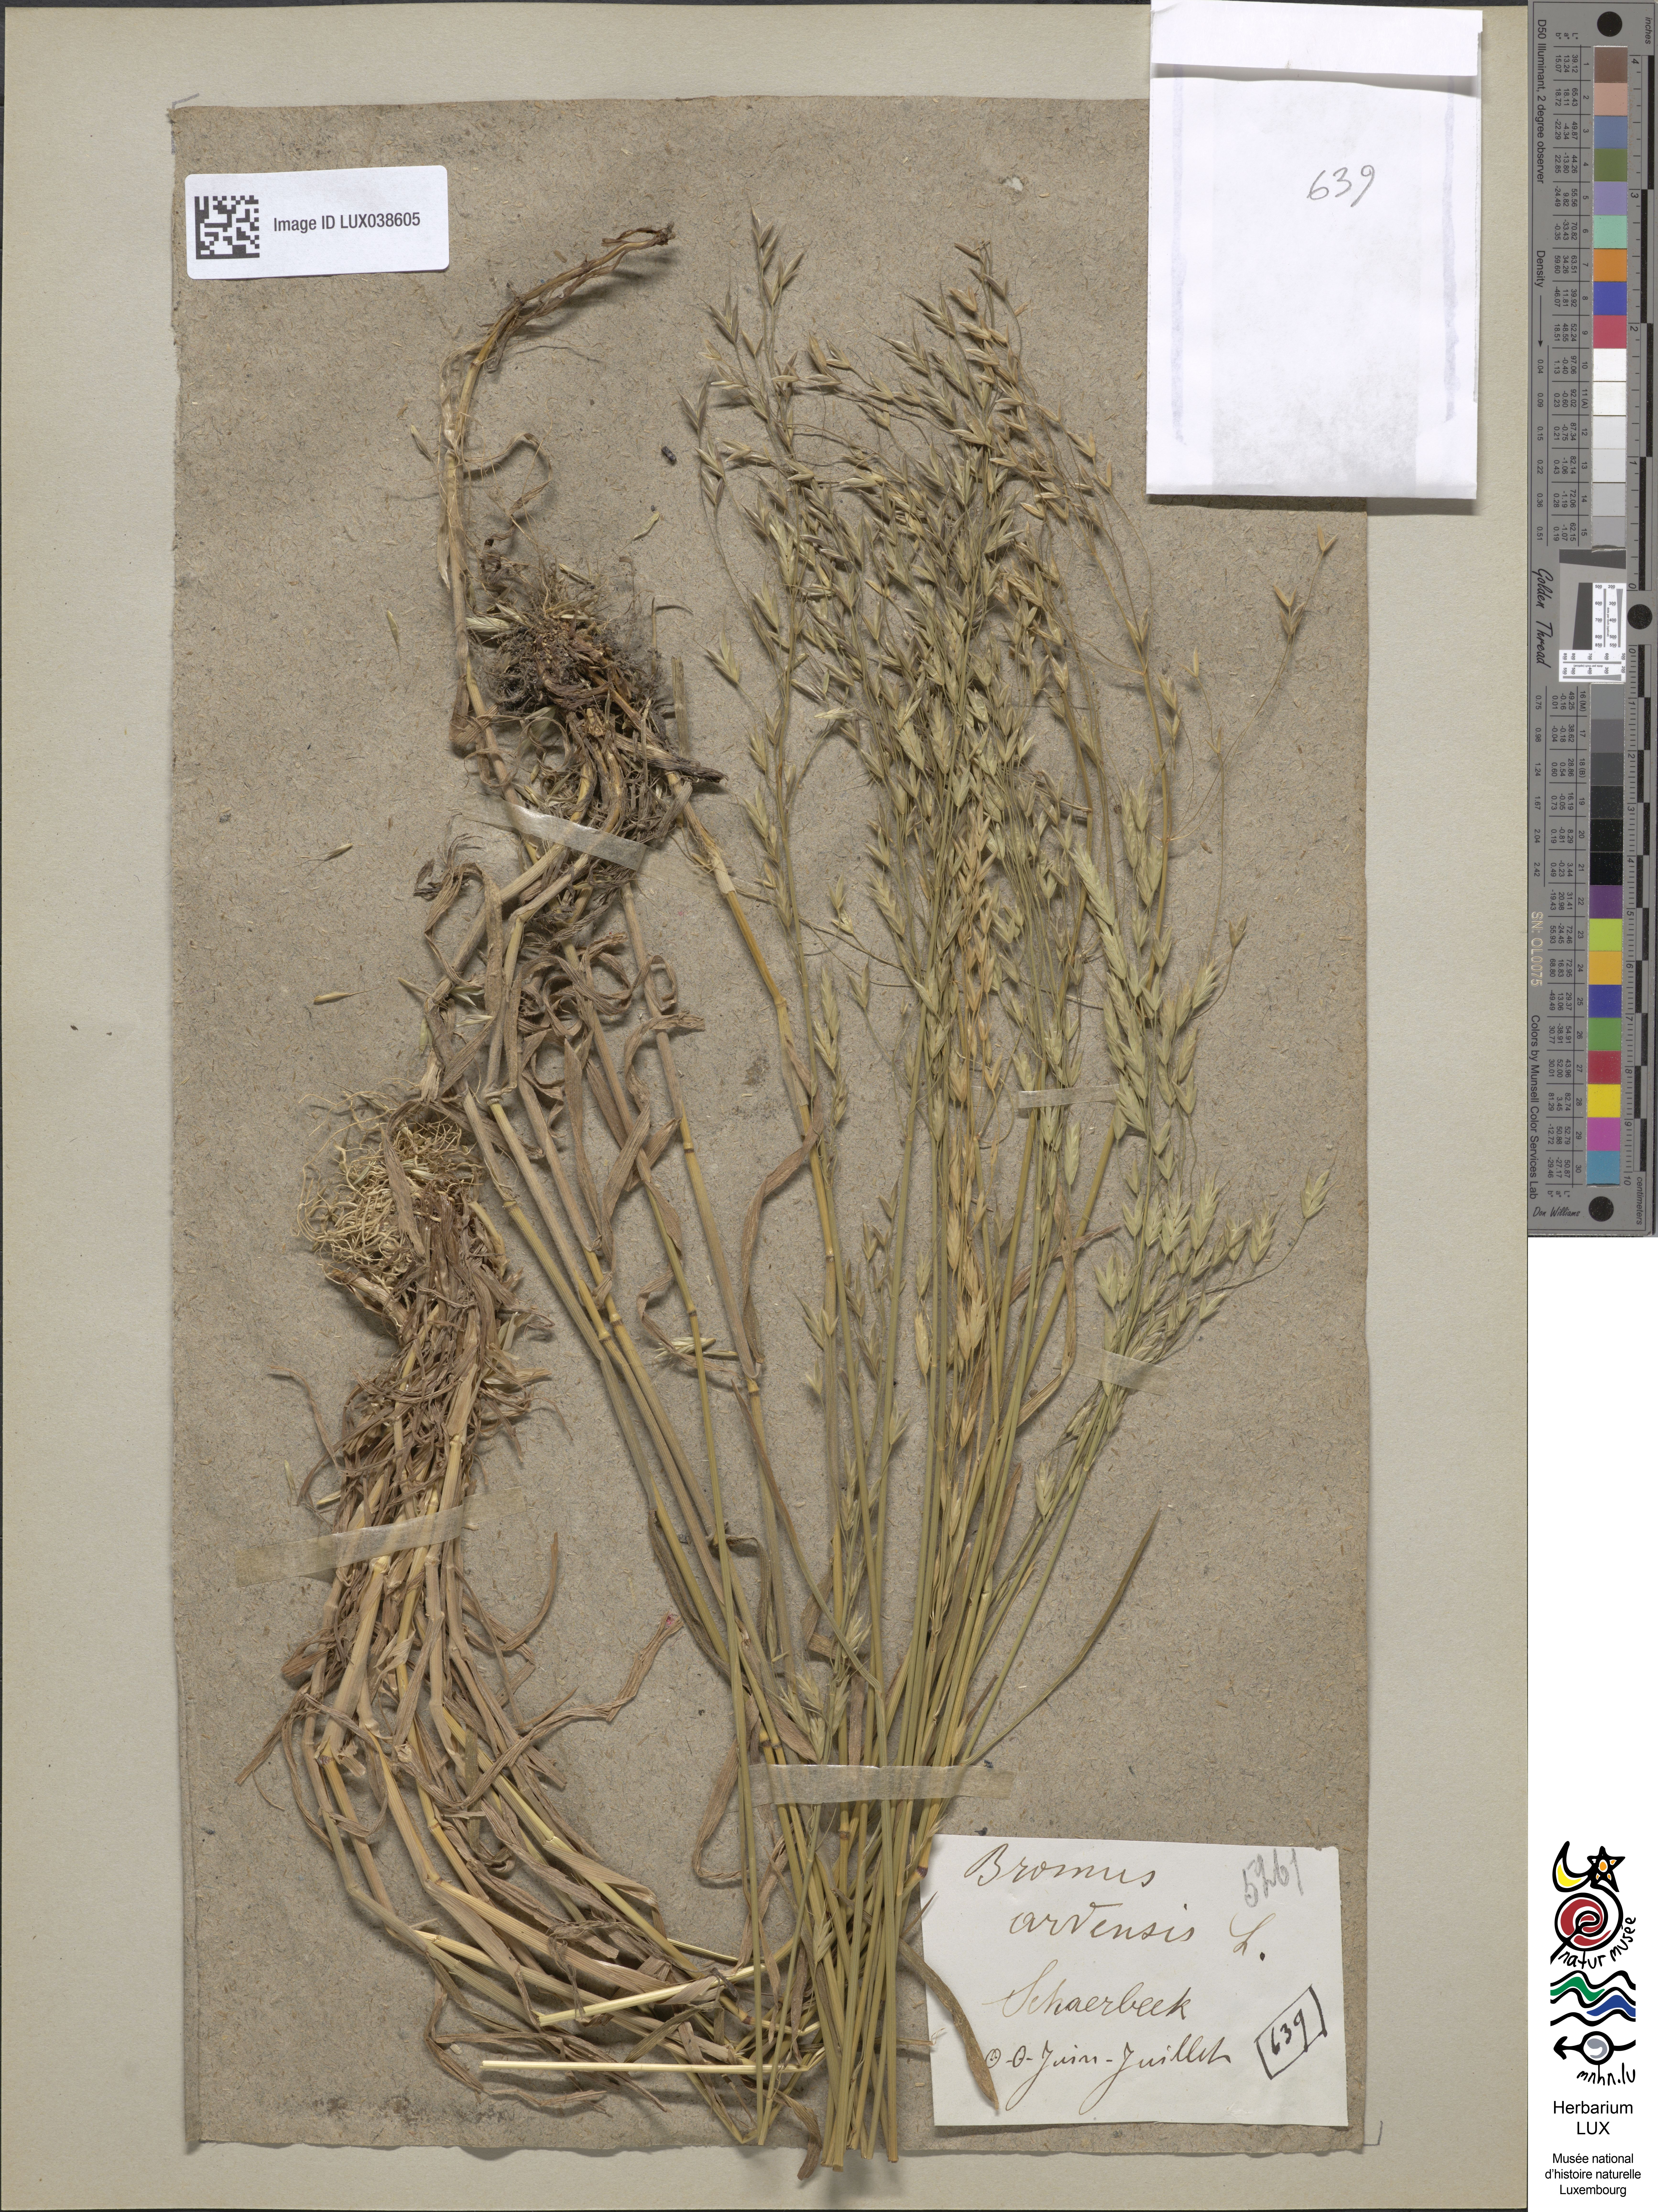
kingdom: Plantae
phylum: Tracheophyta
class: Liliopsida
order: Poales
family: Poaceae
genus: Bromus
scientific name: Bromus arvensis
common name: Field brome
